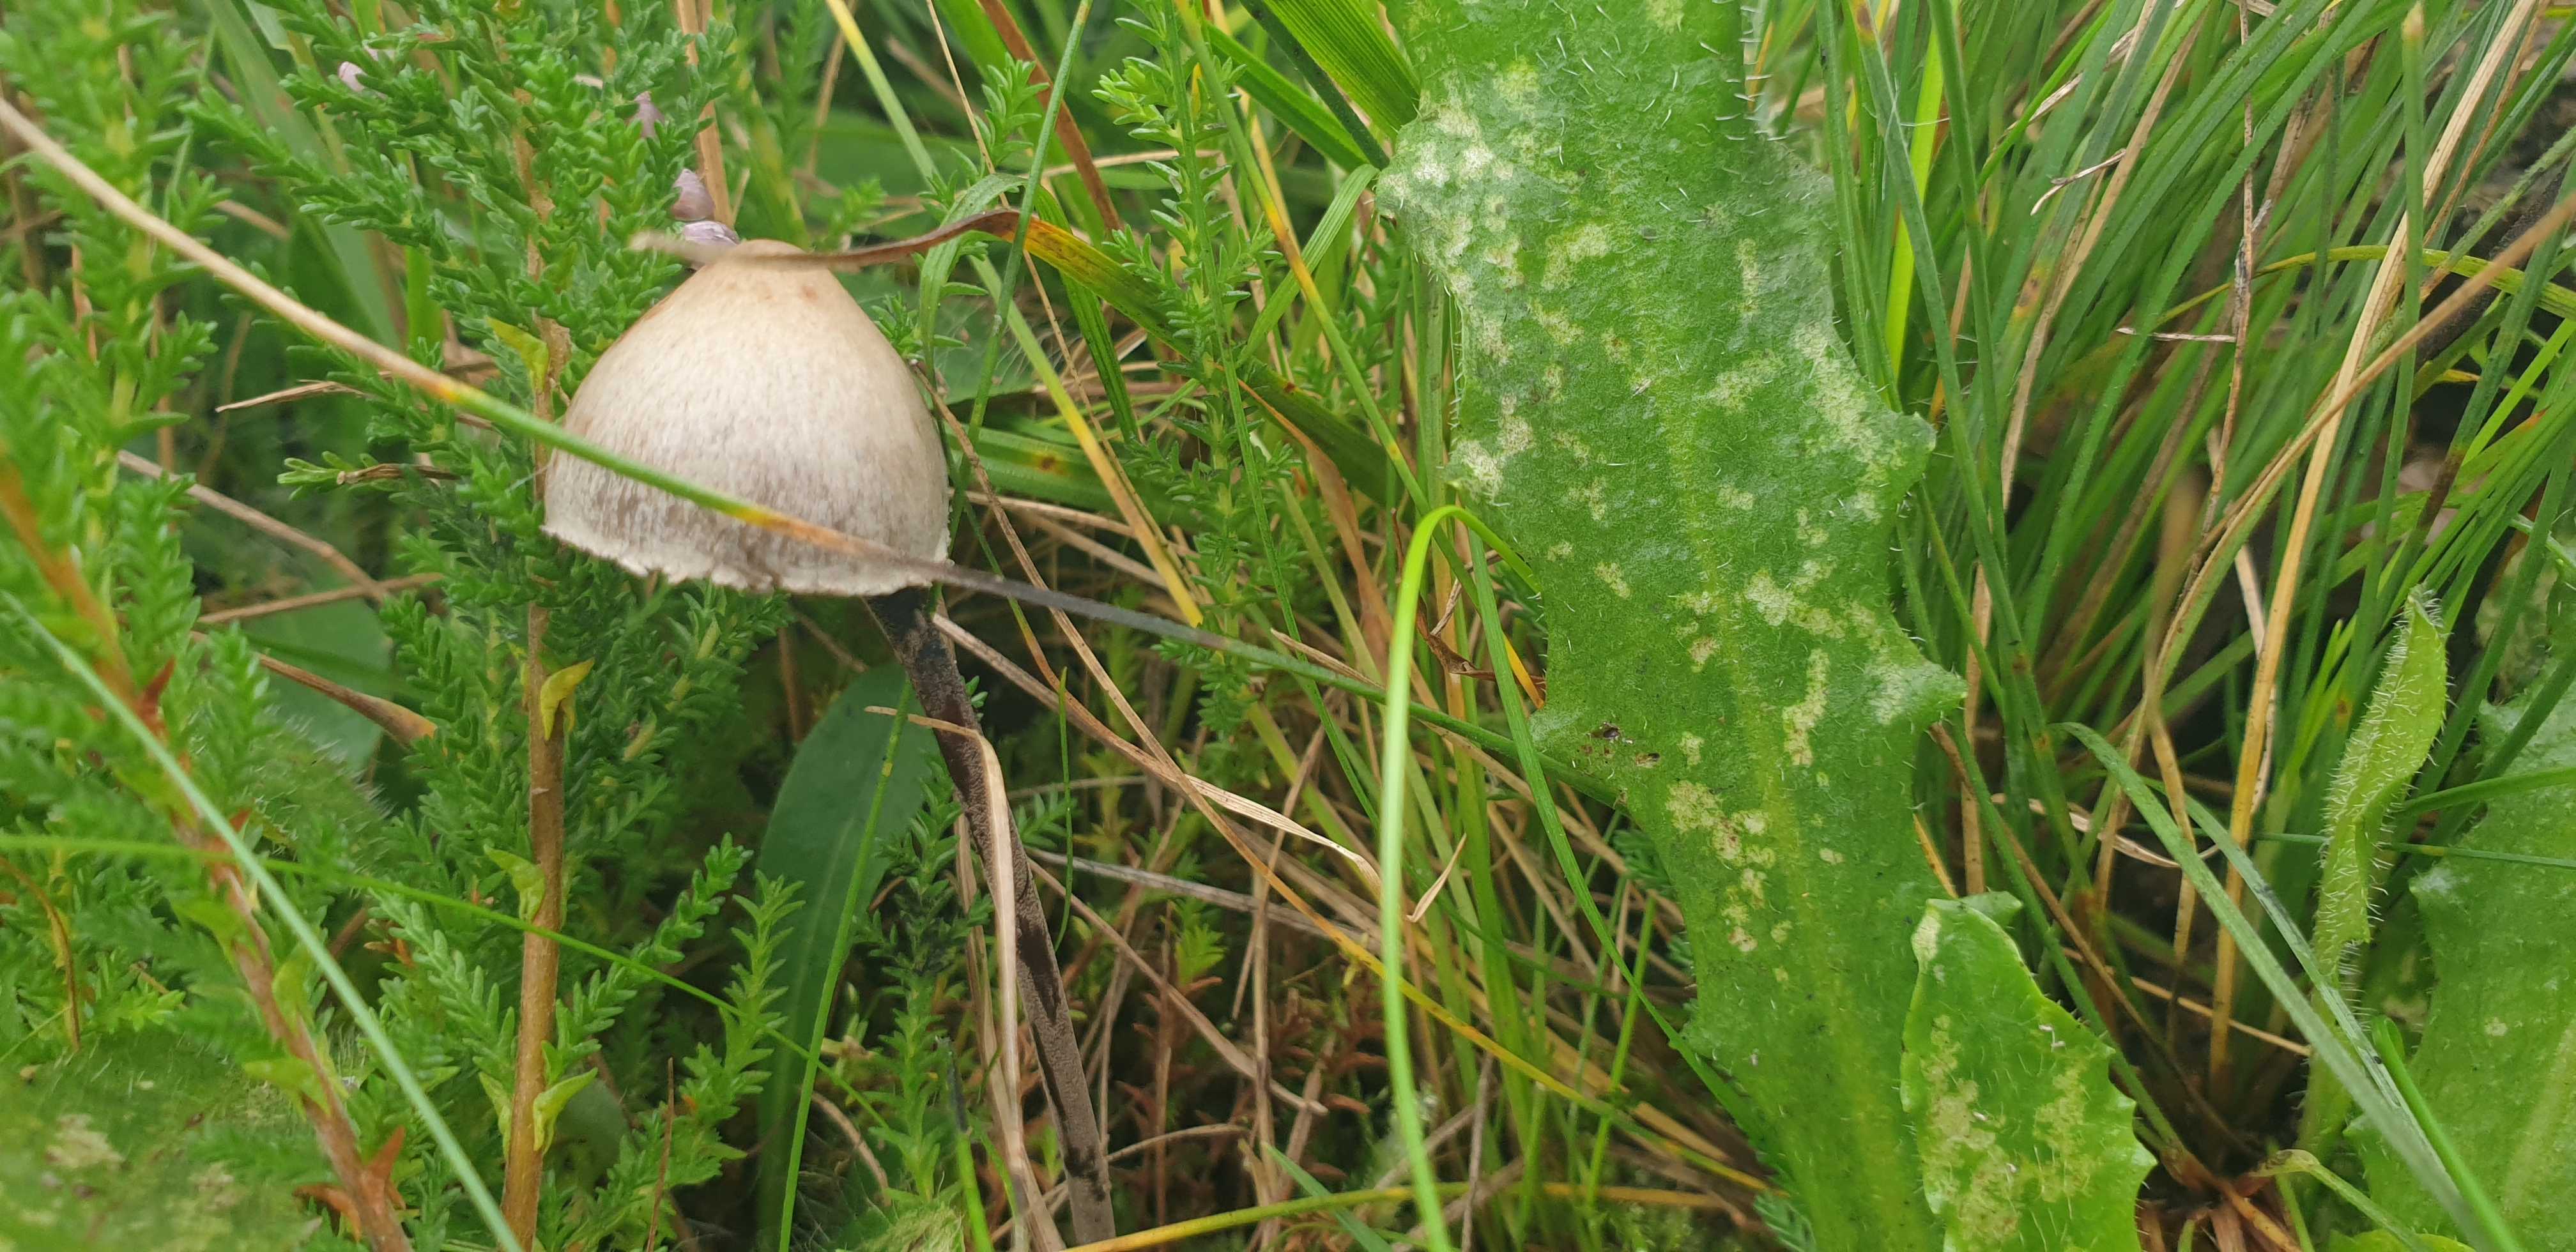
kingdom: Fungi
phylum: Basidiomycota
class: Agaricomycetes
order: Agaricales
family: Bolbitiaceae
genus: Panaeolus
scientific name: Panaeolus papilionaceus
